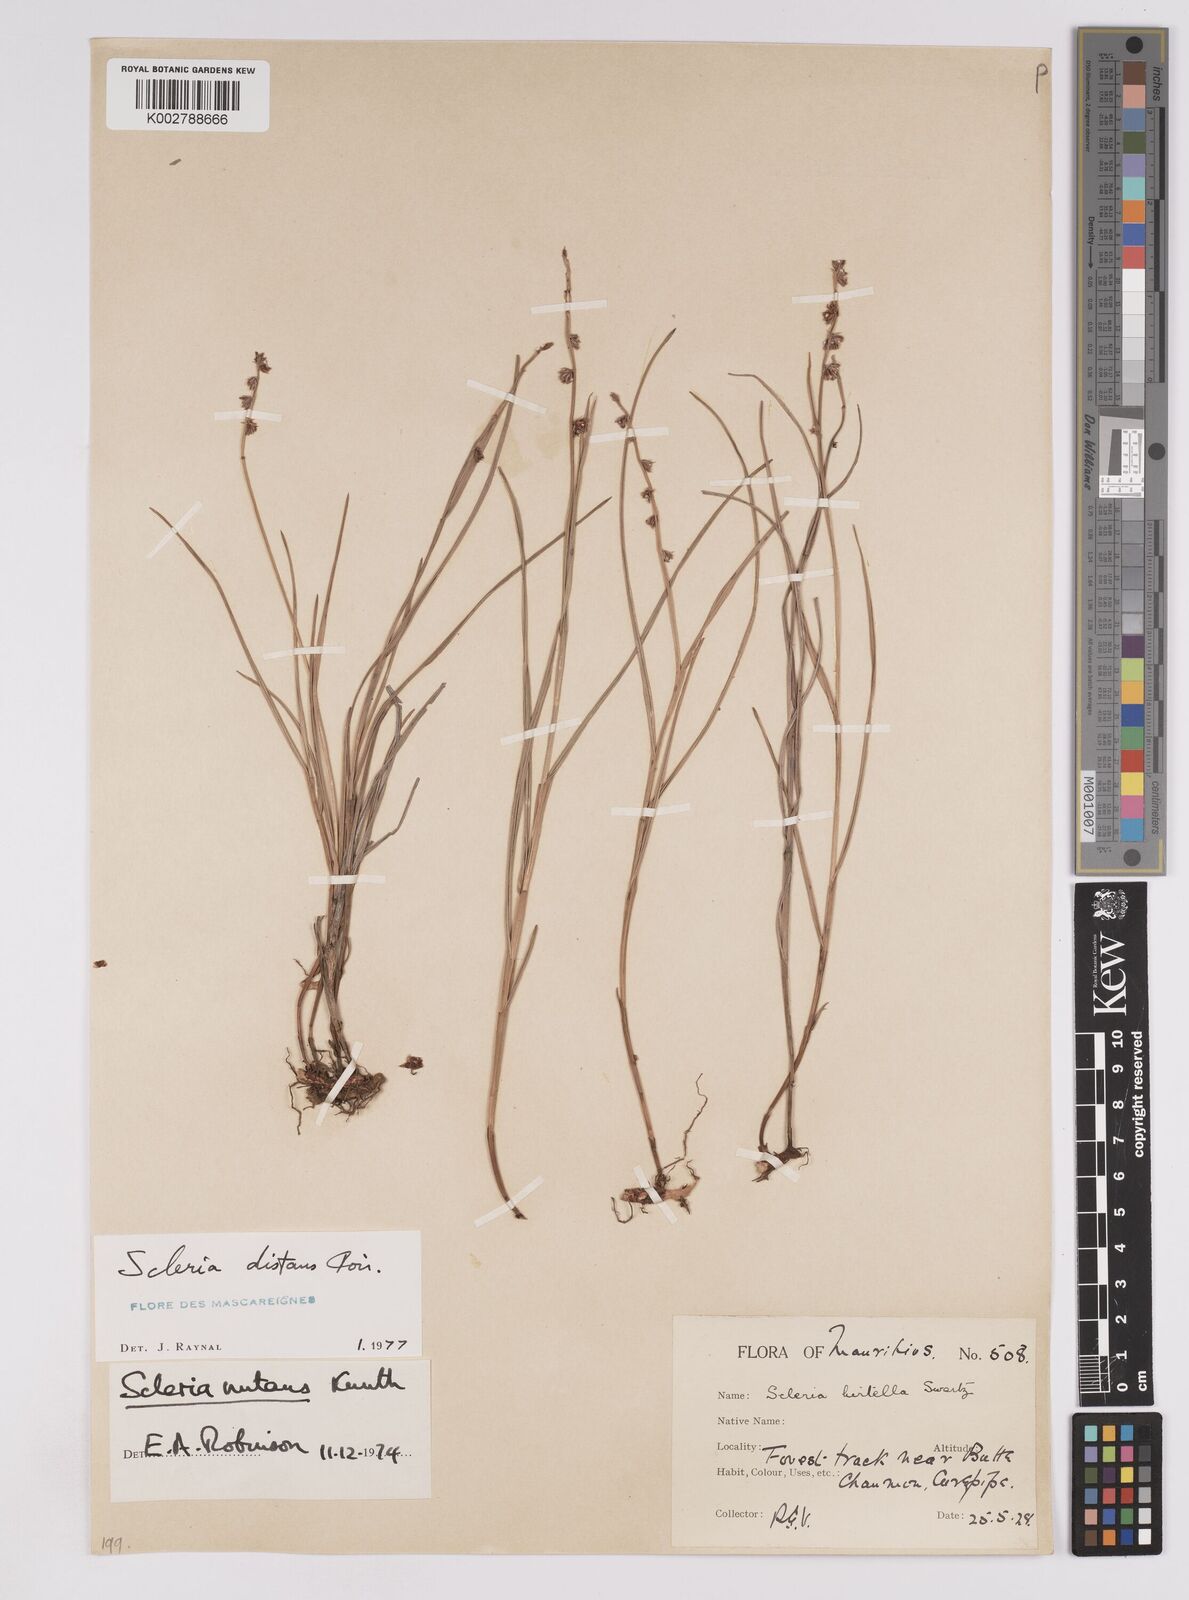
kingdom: Plantae
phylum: Tracheophyta
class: Liliopsida
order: Poales
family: Cyperaceae
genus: Scleria
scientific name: Scleria distans
